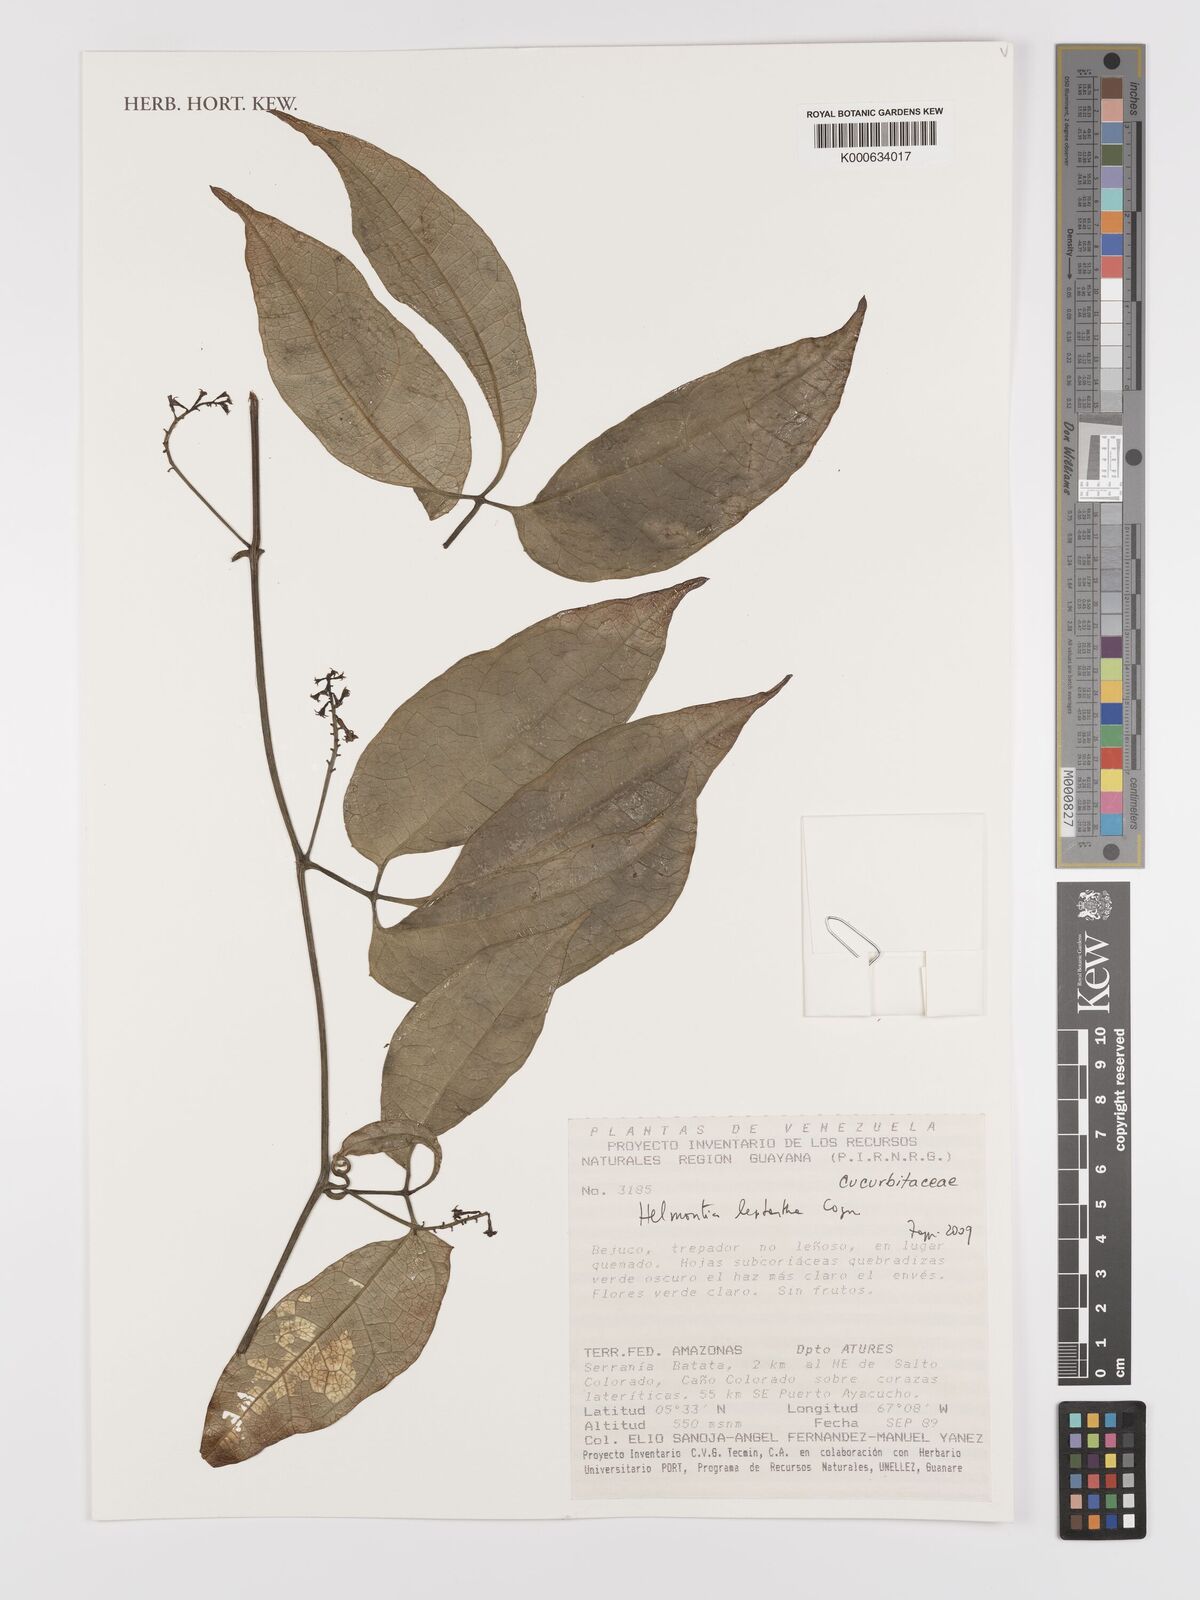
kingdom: Plantae
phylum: Tracheophyta
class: Magnoliopsida
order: Cucurbitales
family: Cucurbitaceae
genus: Helmontia
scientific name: Helmontia leptantha
